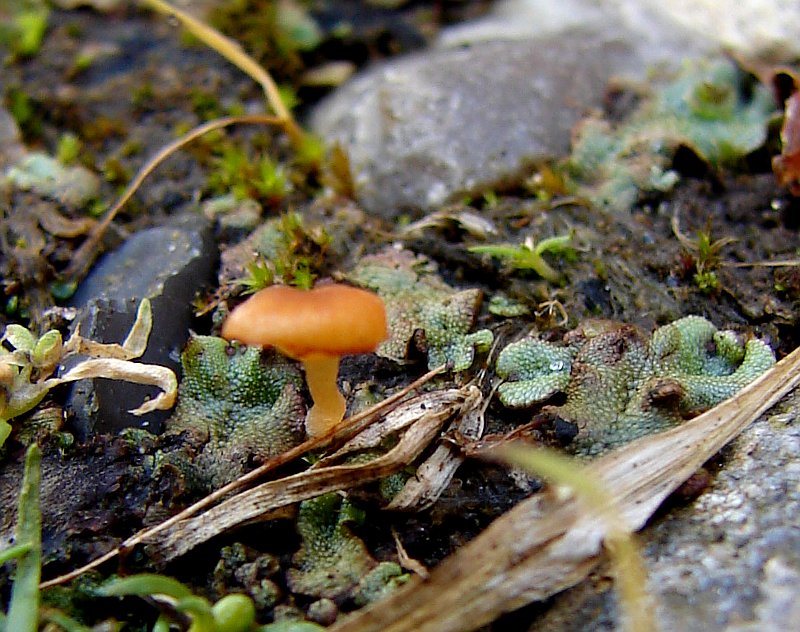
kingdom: Fungi
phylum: Basidiomycota
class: Agaricomycetes
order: Hymenochaetales
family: Rickenellaceae
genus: Loreleia
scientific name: Loreleia marchantiae
